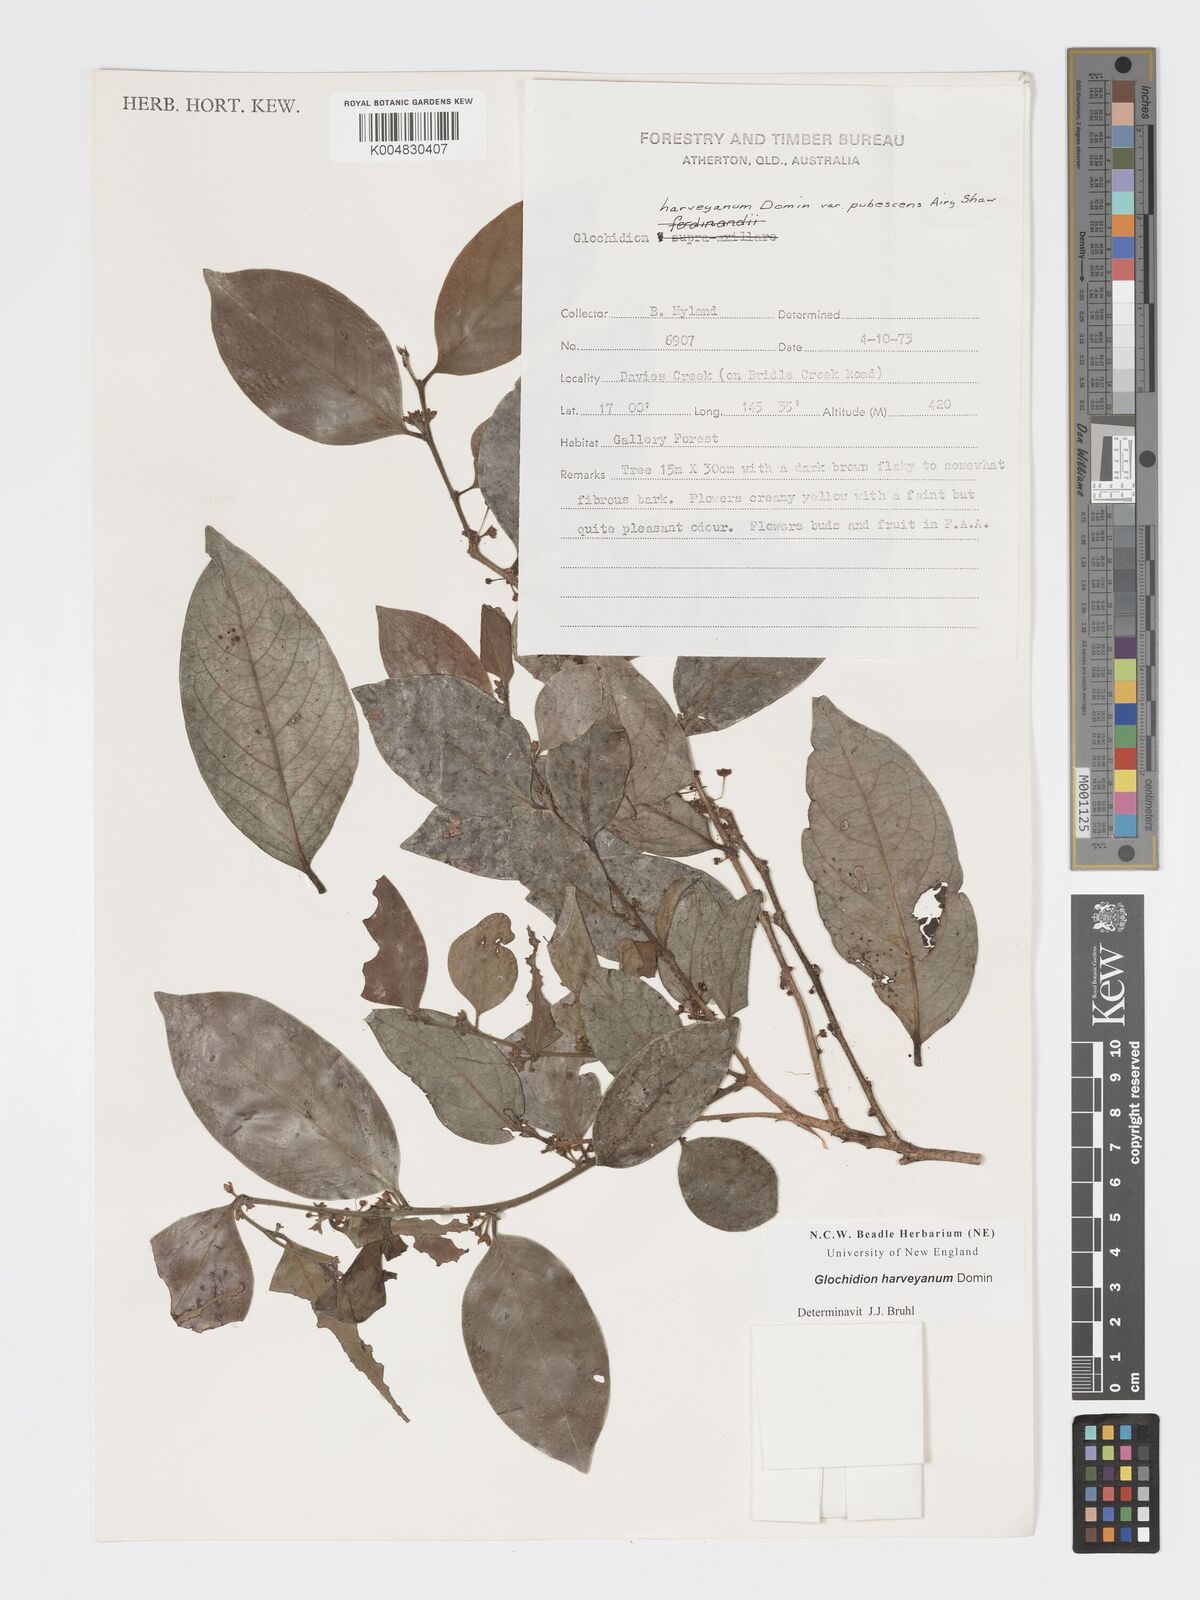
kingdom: Plantae
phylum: Tracheophyta
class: Magnoliopsida
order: Malpighiales
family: Phyllanthaceae
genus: Glochidion
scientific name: Glochidion harveyanum
